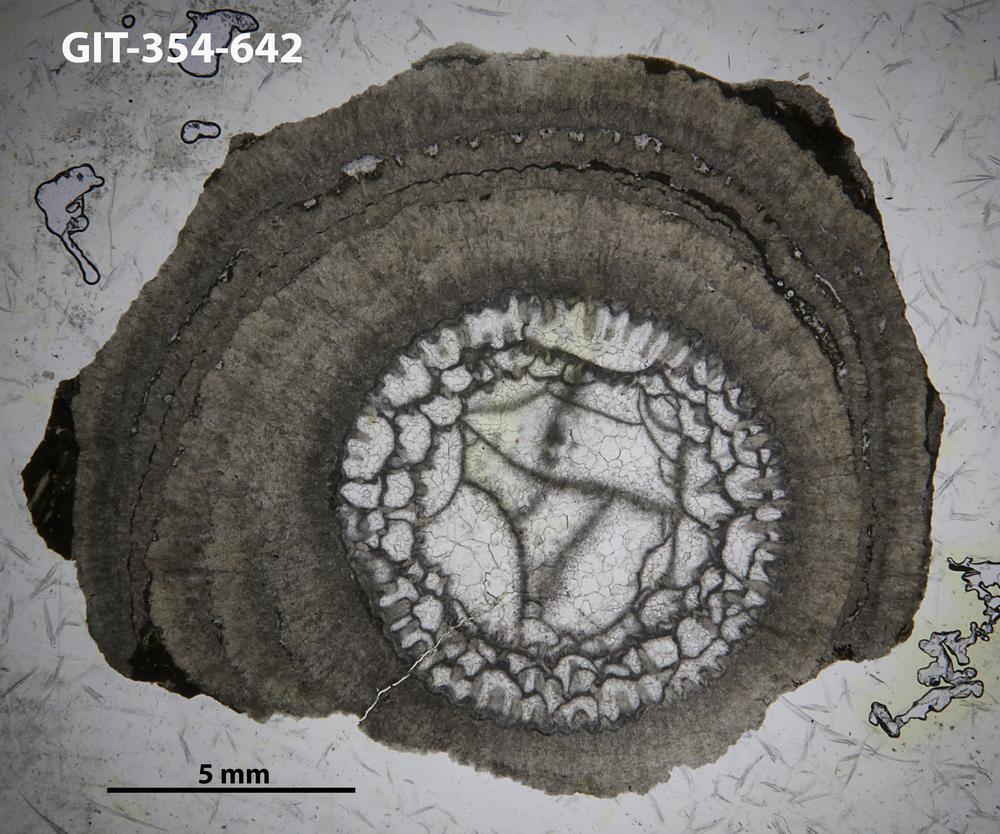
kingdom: Animalia
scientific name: Animalia
